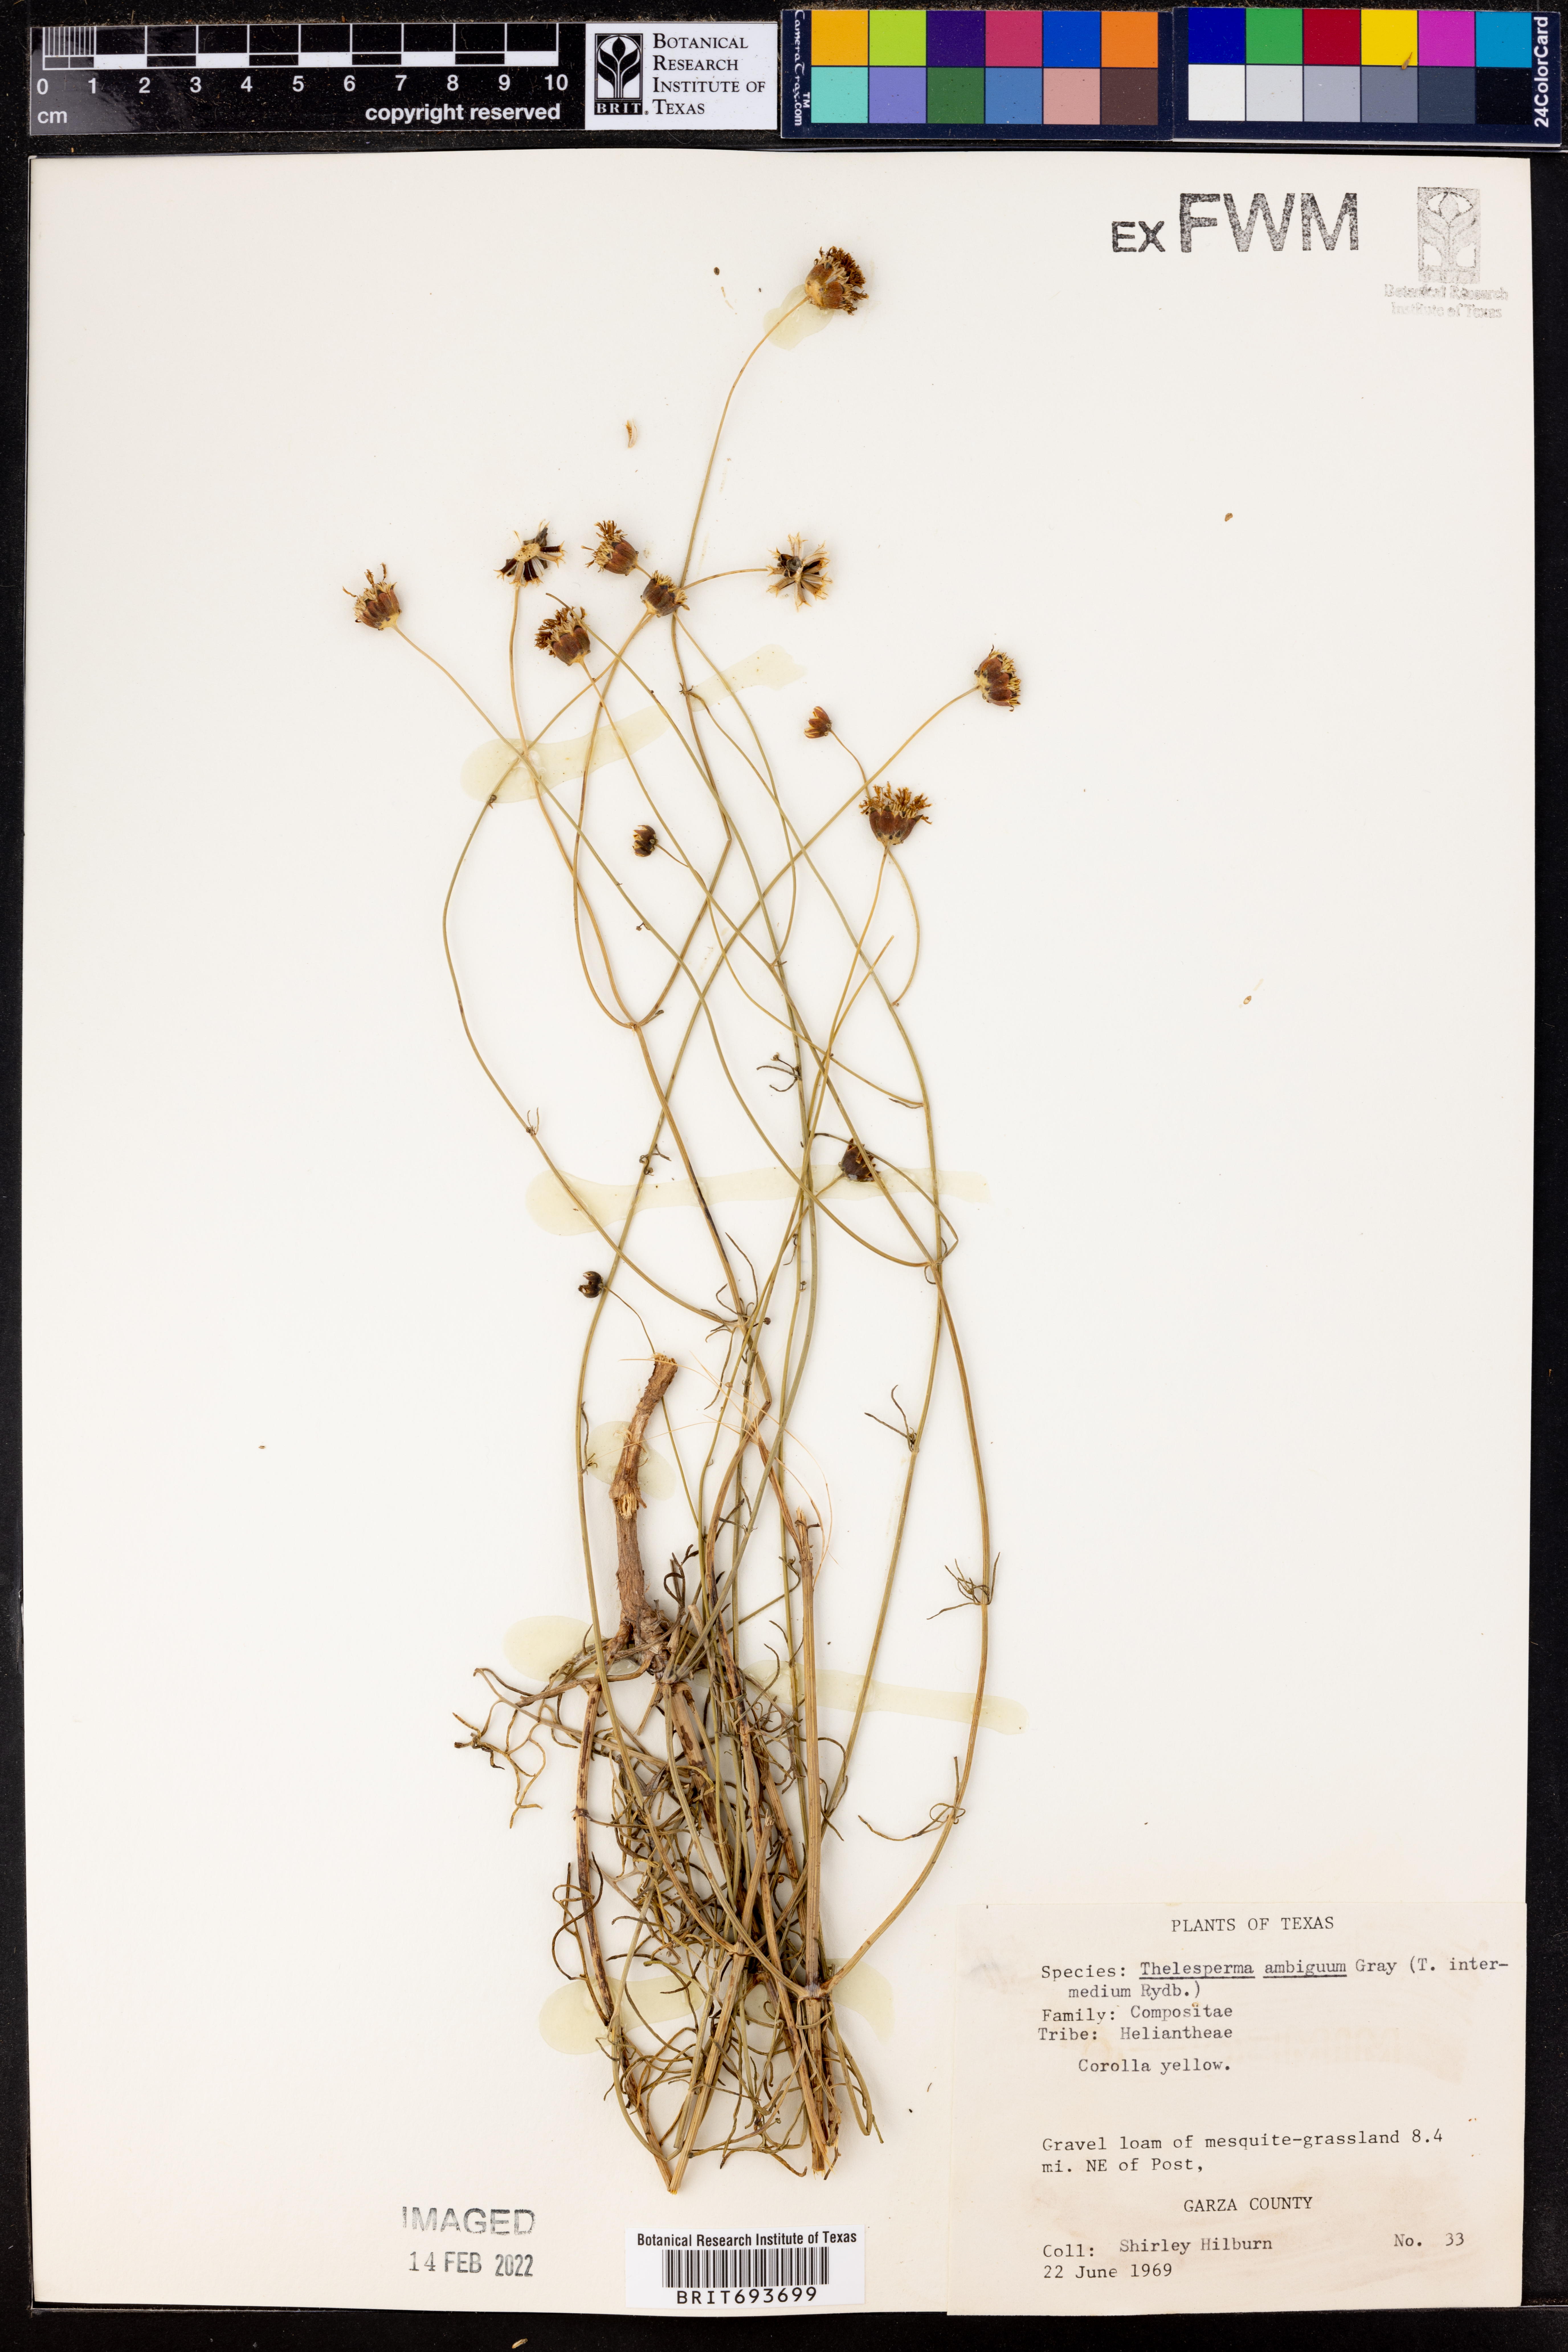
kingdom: Plantae
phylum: Tracheophyta
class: Magnoliopsida
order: Asterales
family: Asteraceae
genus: Thelesperma
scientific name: Thelesperma ambiguum
